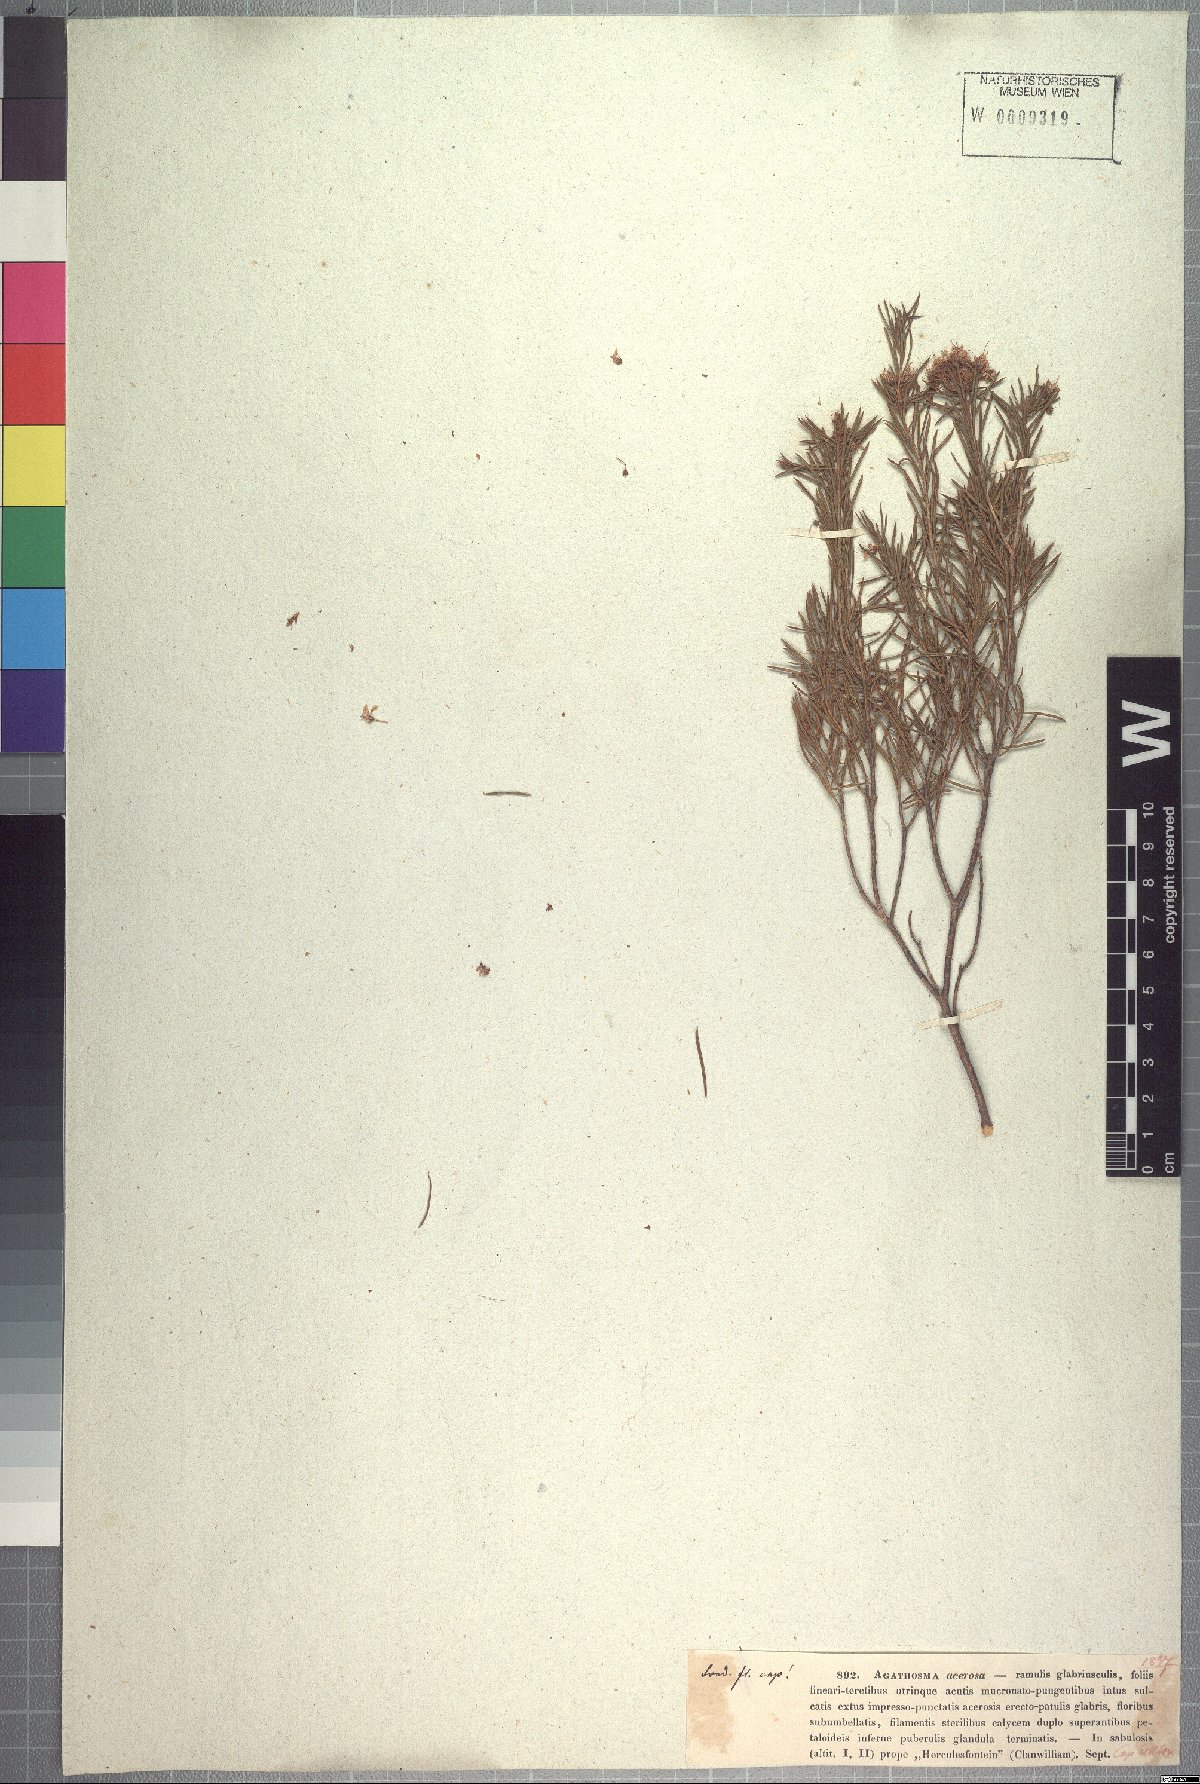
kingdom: Plantae
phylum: Tracheophyta
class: Magnoliopsida
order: Sapindales
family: Rutaceae
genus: Agathosma
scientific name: Agathosma bisulca
